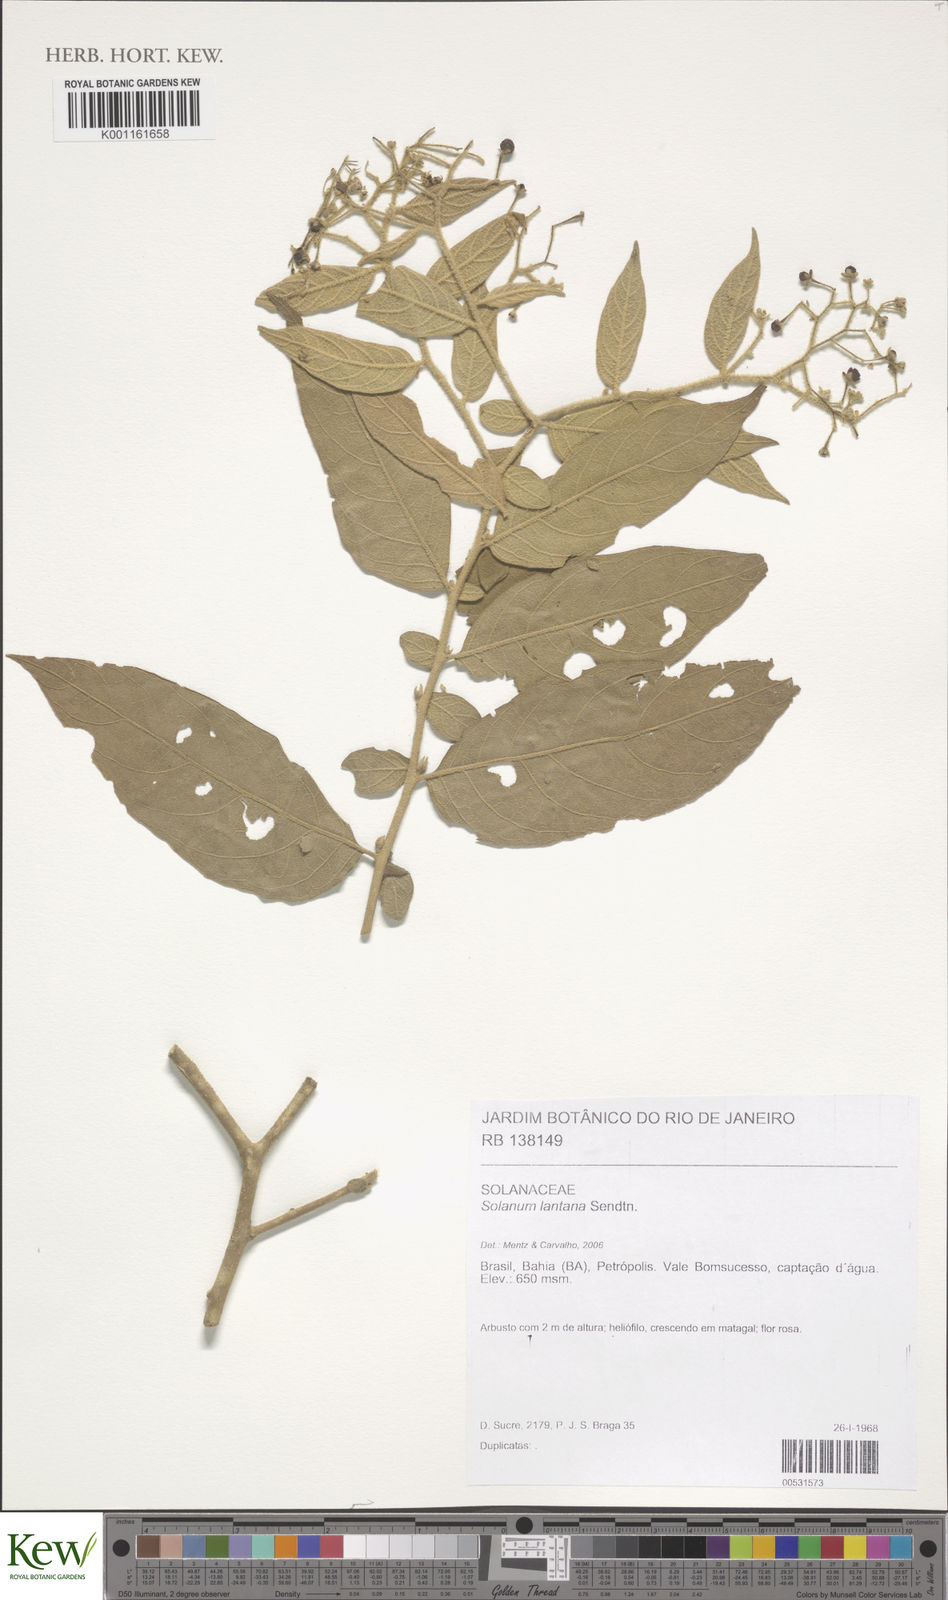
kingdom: Plantae
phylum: Tracheophyta
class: Magnoliopsida
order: Solanales
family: Solanaceae
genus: Solanum
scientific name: Solanum lantana
